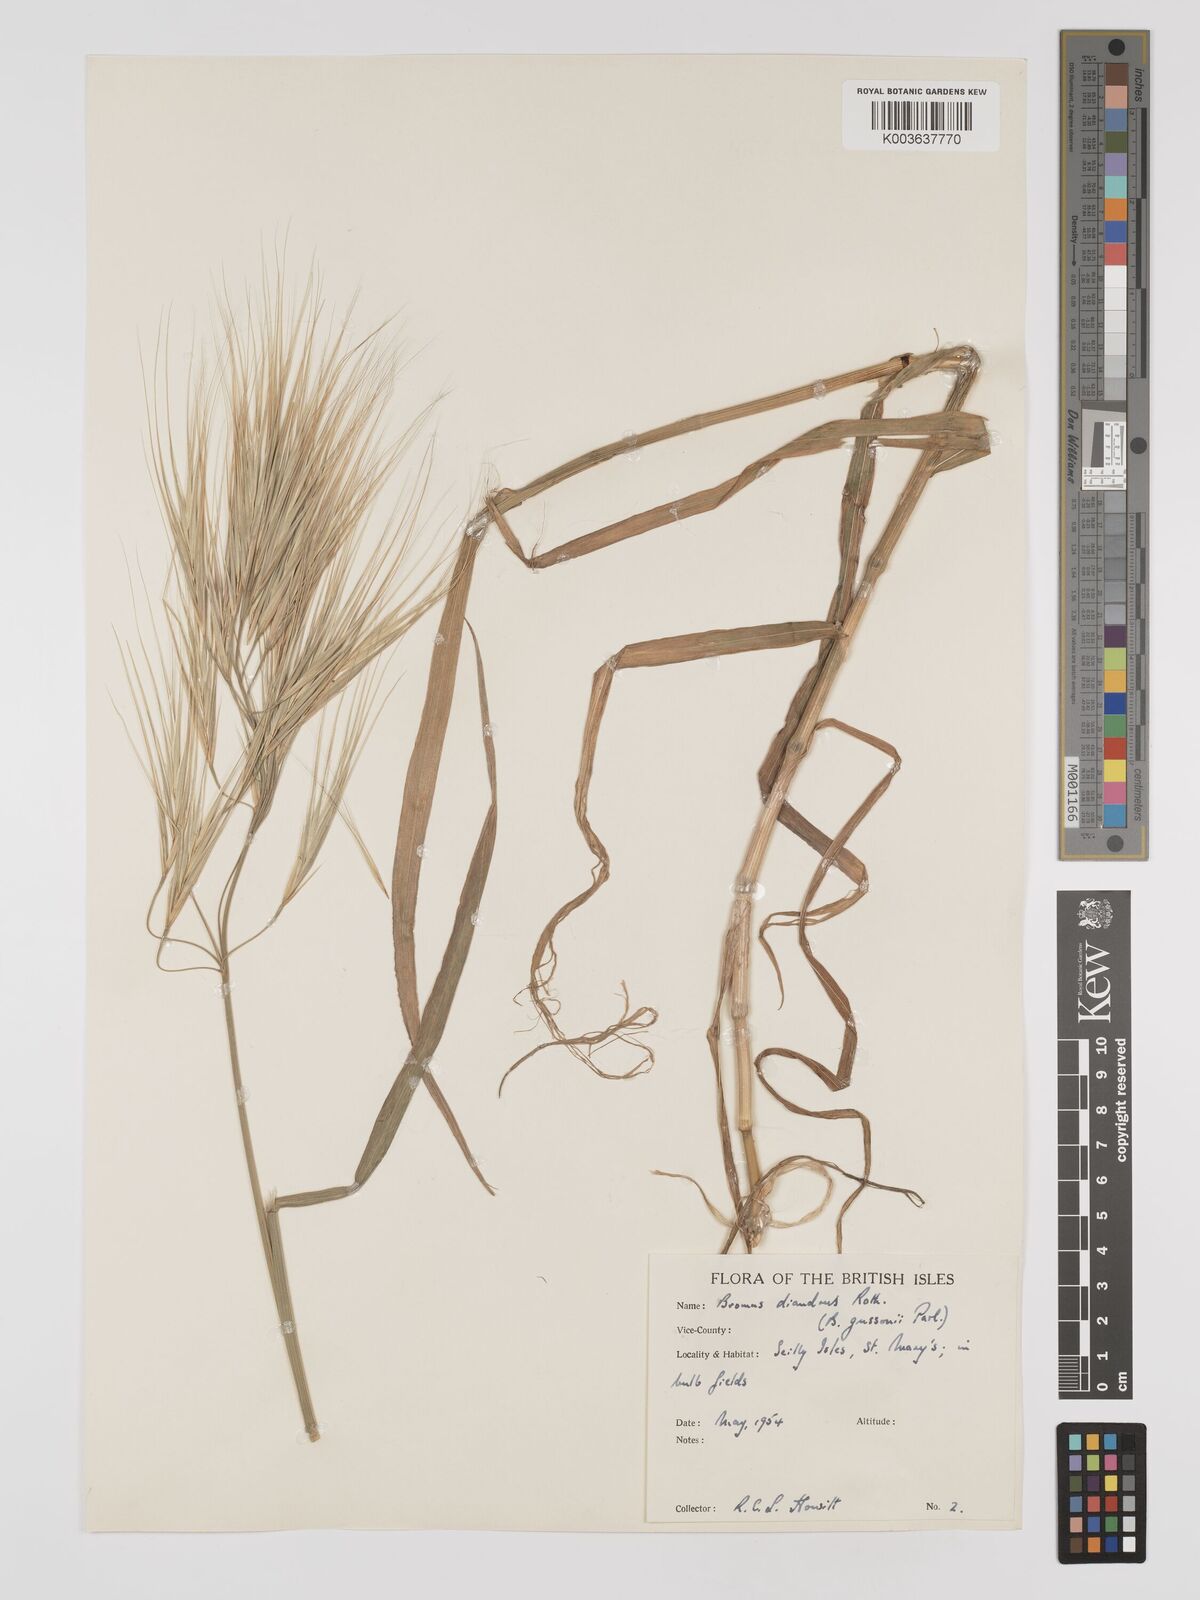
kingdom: Plantae
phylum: Tracheophyta
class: Liliopsida
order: Poales
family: Poaceae
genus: Bromus
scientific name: Bromus
